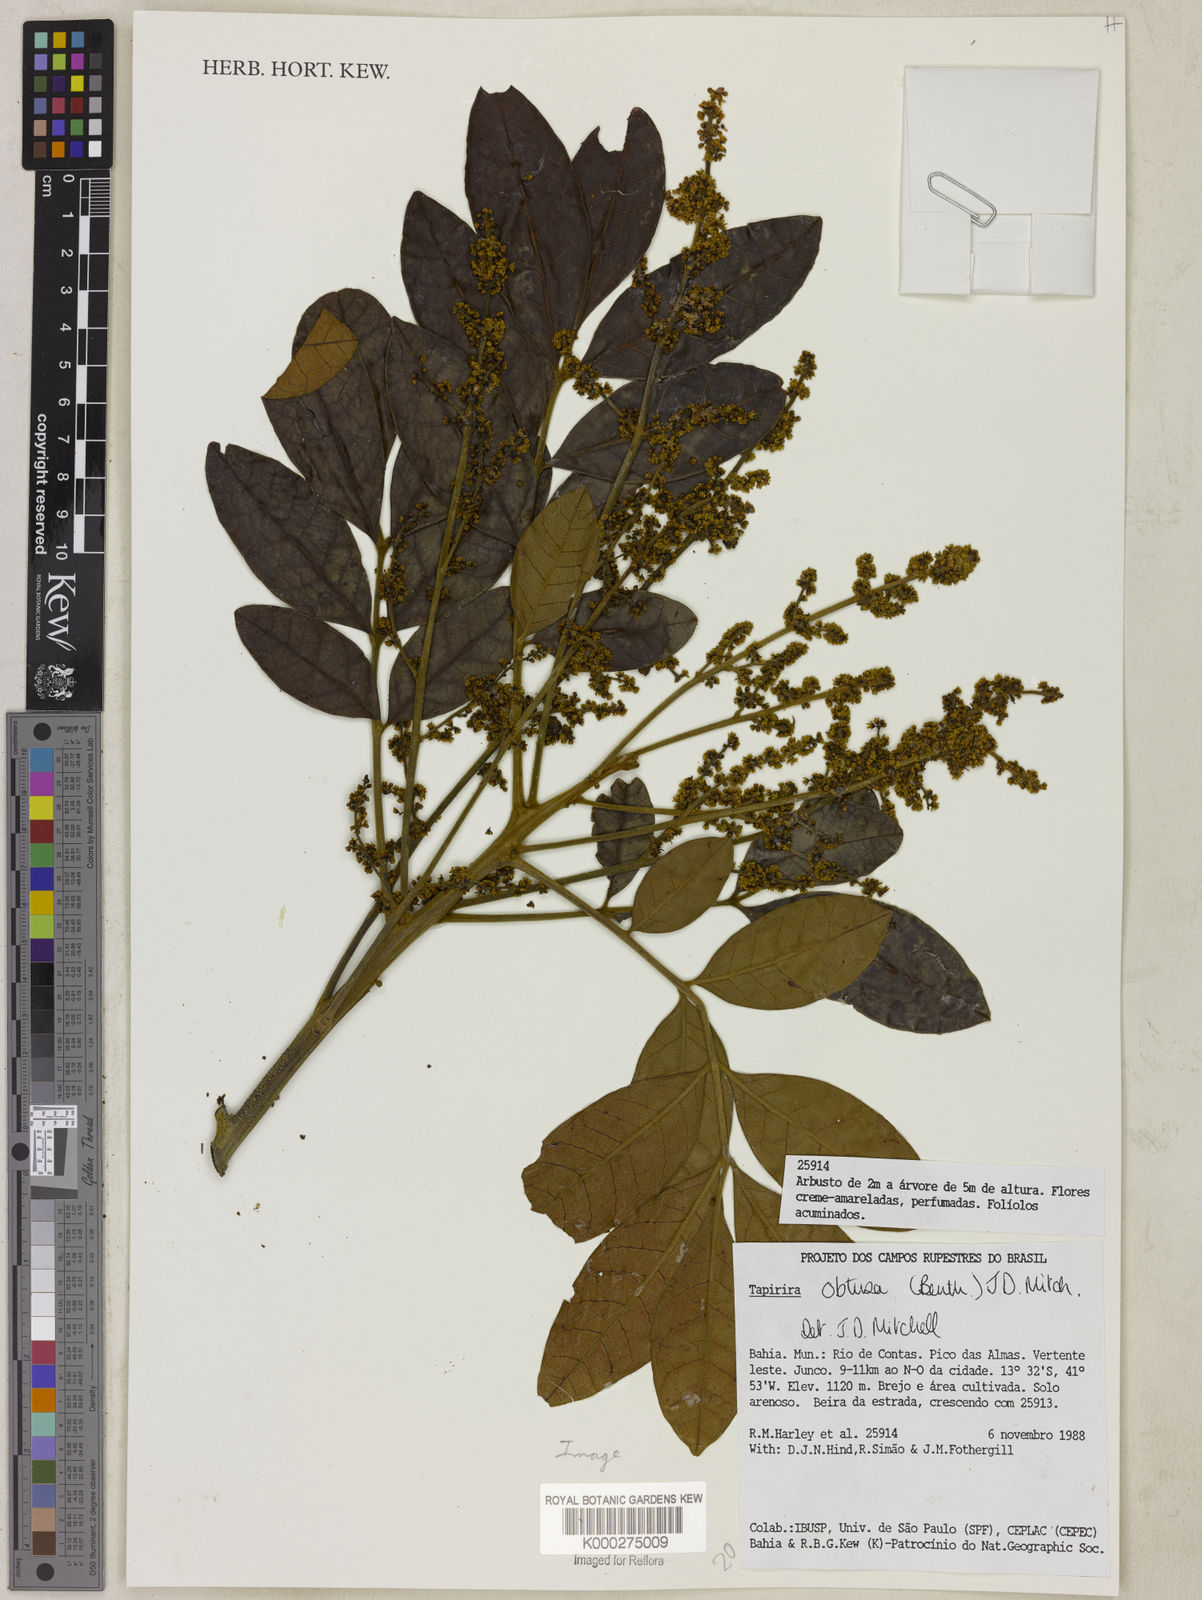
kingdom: Plantae
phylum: Tracheophyta
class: Magnoliopsida
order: Sapindales
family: Anacardiaceae
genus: Tapirira
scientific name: Tapirira obtusa
